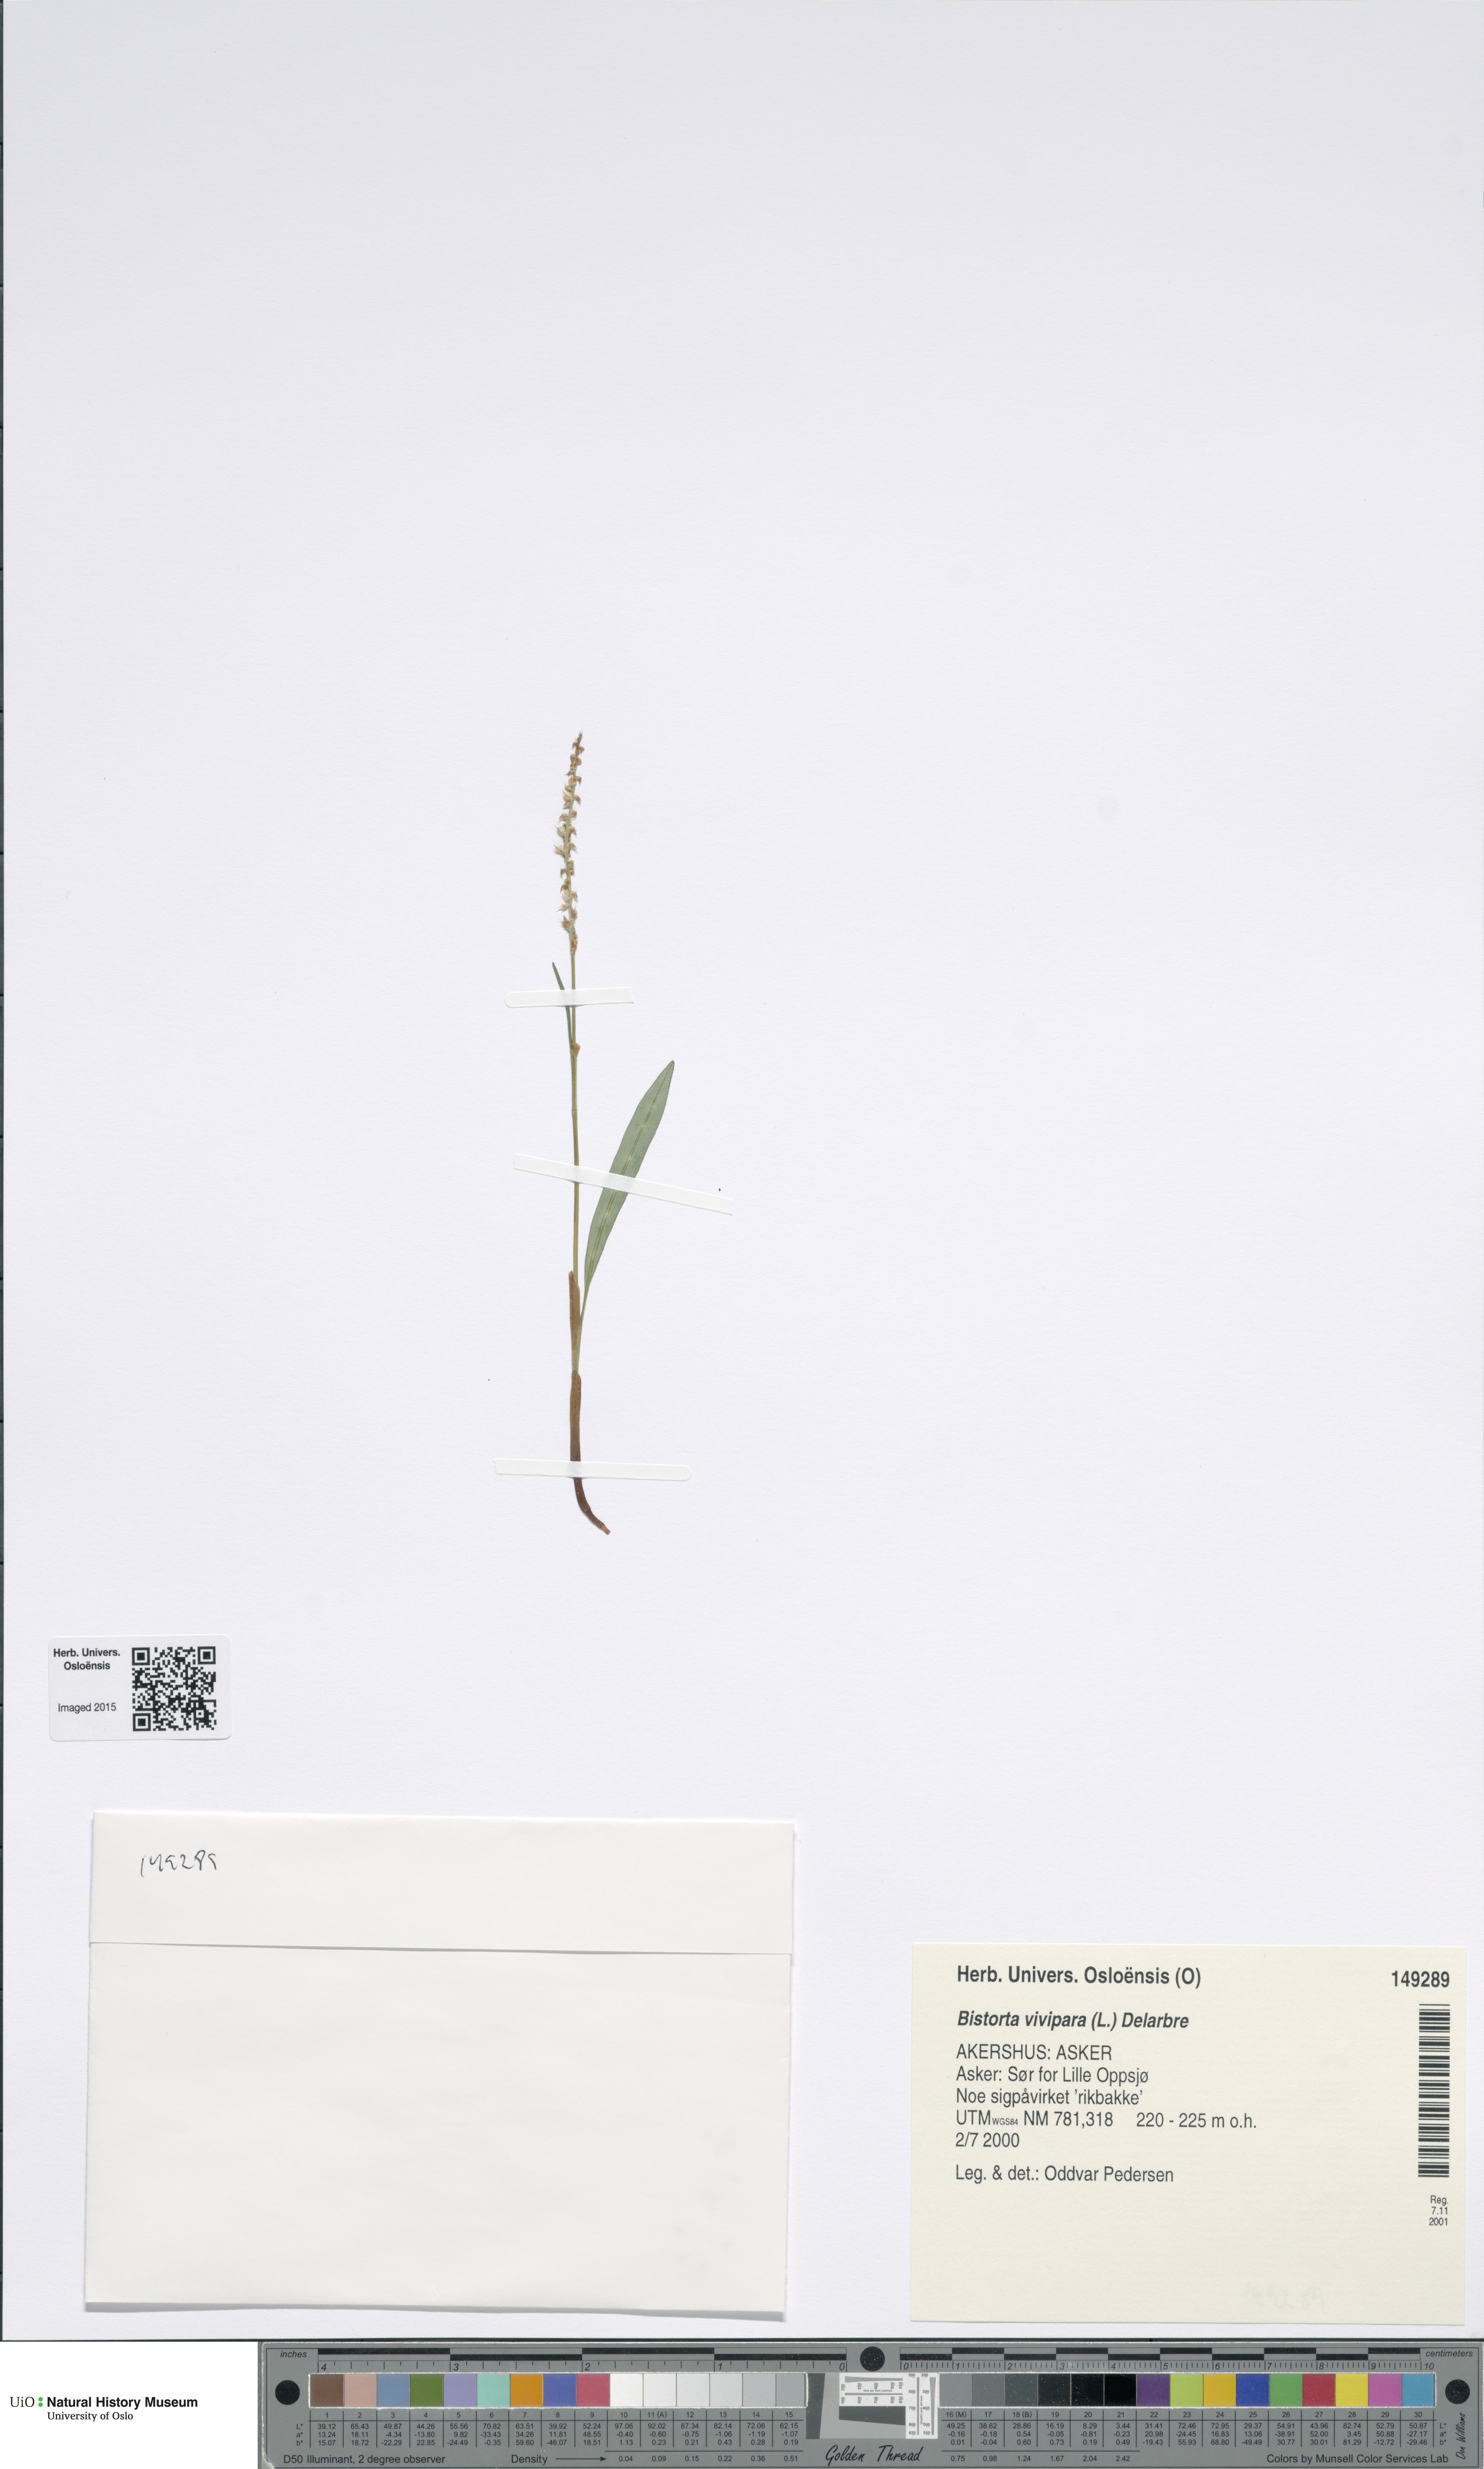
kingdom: Plantae
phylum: Tracheophyta
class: Magnoliopsida
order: Caryophyllales
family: Polygonaceae
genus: Bistorta
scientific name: Bistorta vivipara
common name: Alpine bistort
